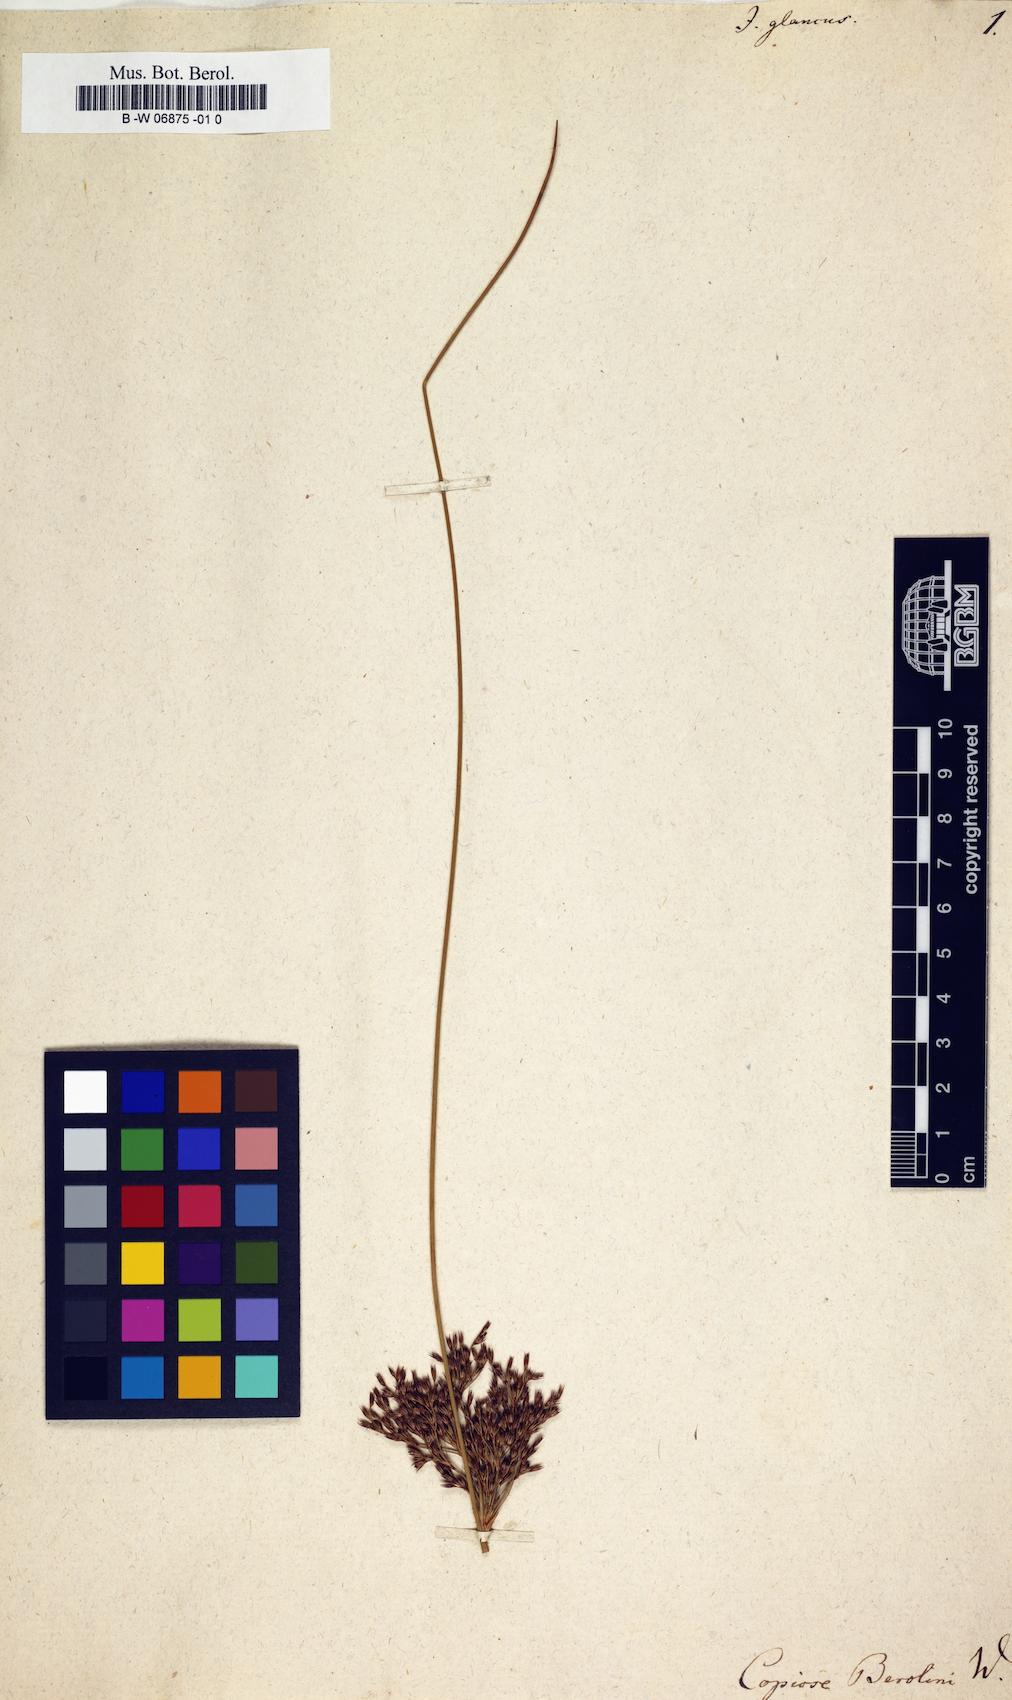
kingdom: Plantae
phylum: Tracheophyta
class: Liliopsida
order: Poales
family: Juncaceae
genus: Juncus
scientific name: Juncus glaucus
